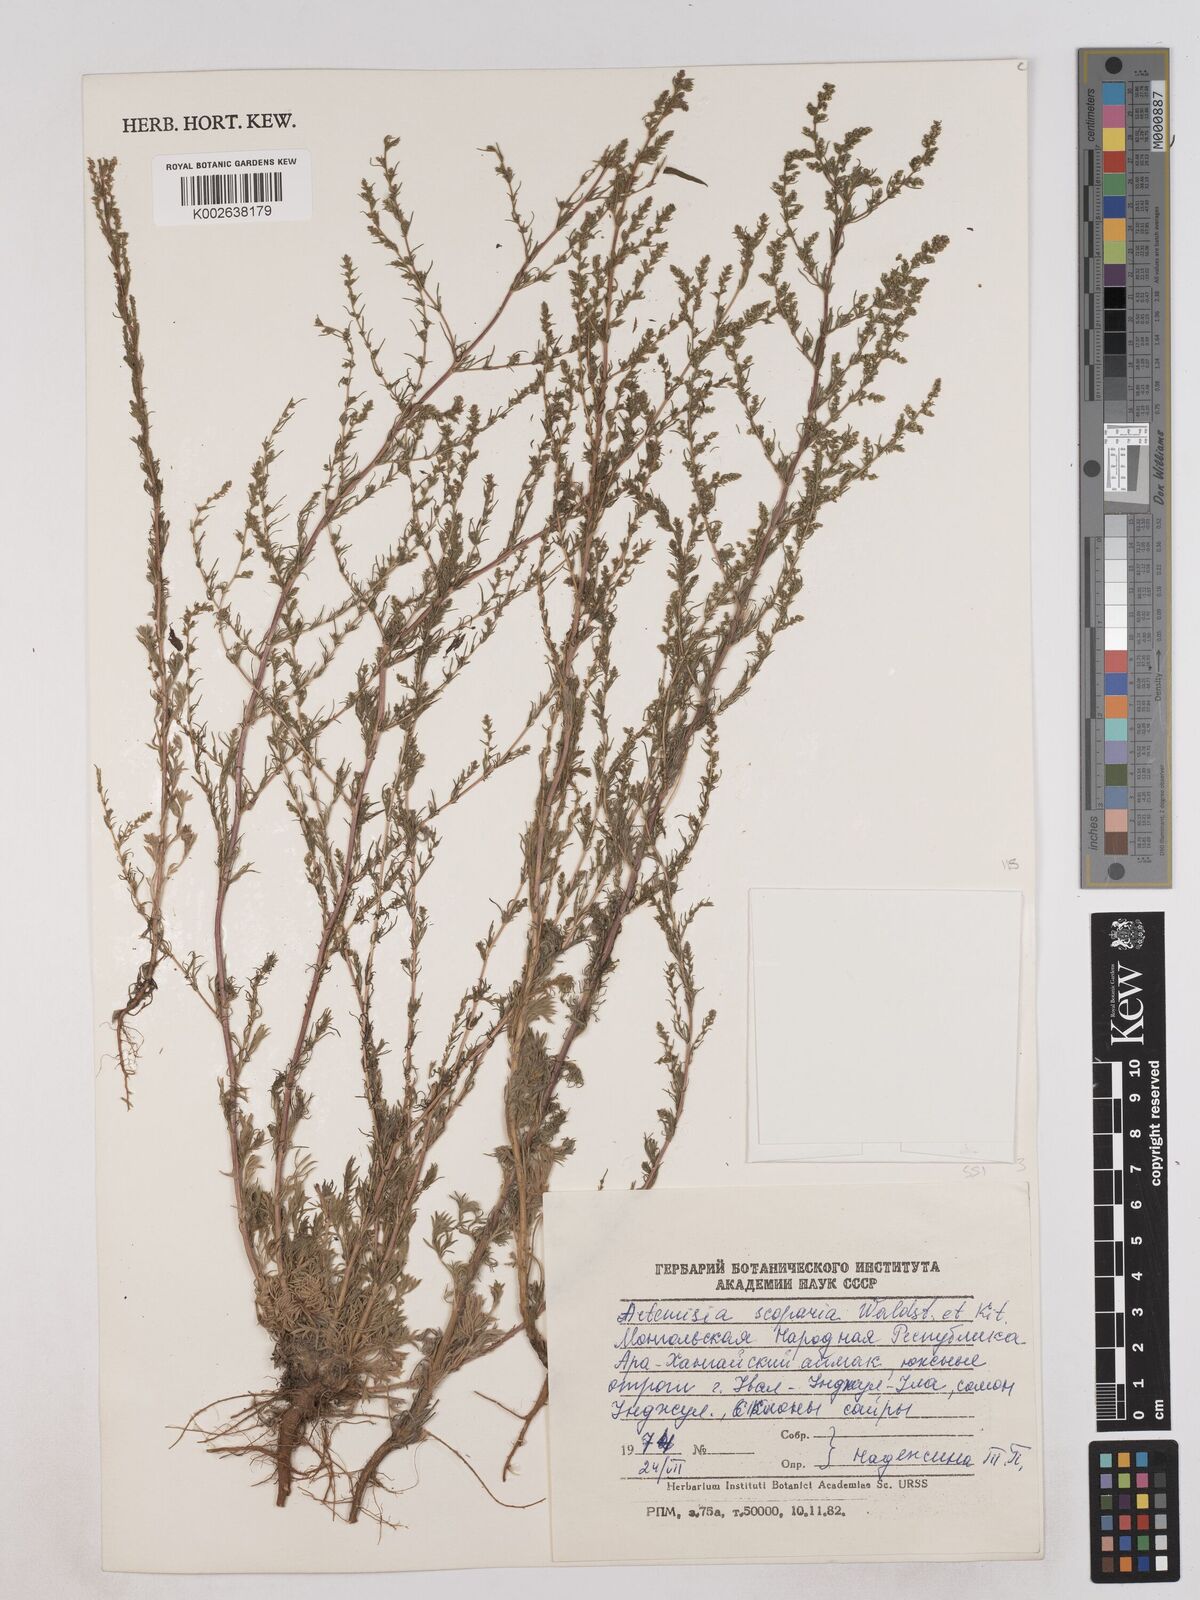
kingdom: Plantae
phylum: Tracheophyta
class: Magnoliopsida
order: Asterales
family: Asteraceae
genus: Artemisia
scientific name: Artemisia scoparia
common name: Redstem wormwood
